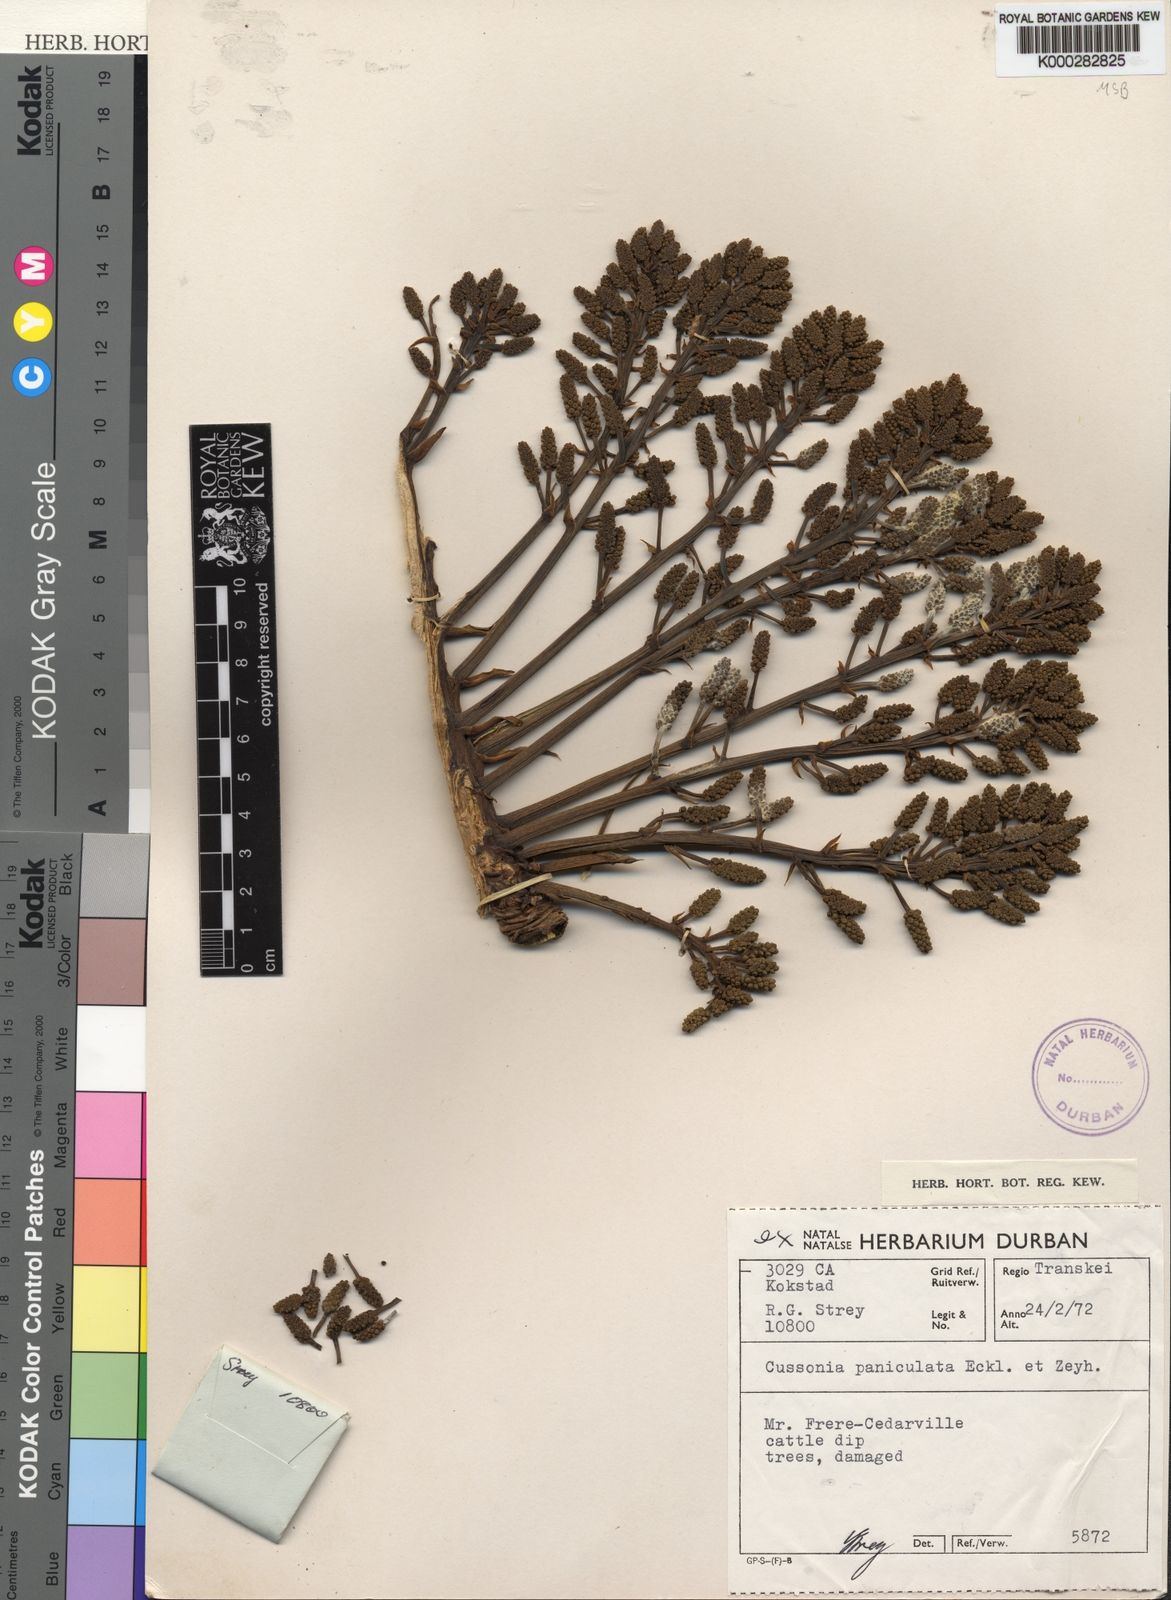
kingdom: Plantae
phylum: Tracheophyta
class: Magnoliopsida
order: Apiales
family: Araliaceae
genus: Cussonia
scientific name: Cussonia paniculata
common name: Cabbagetree
